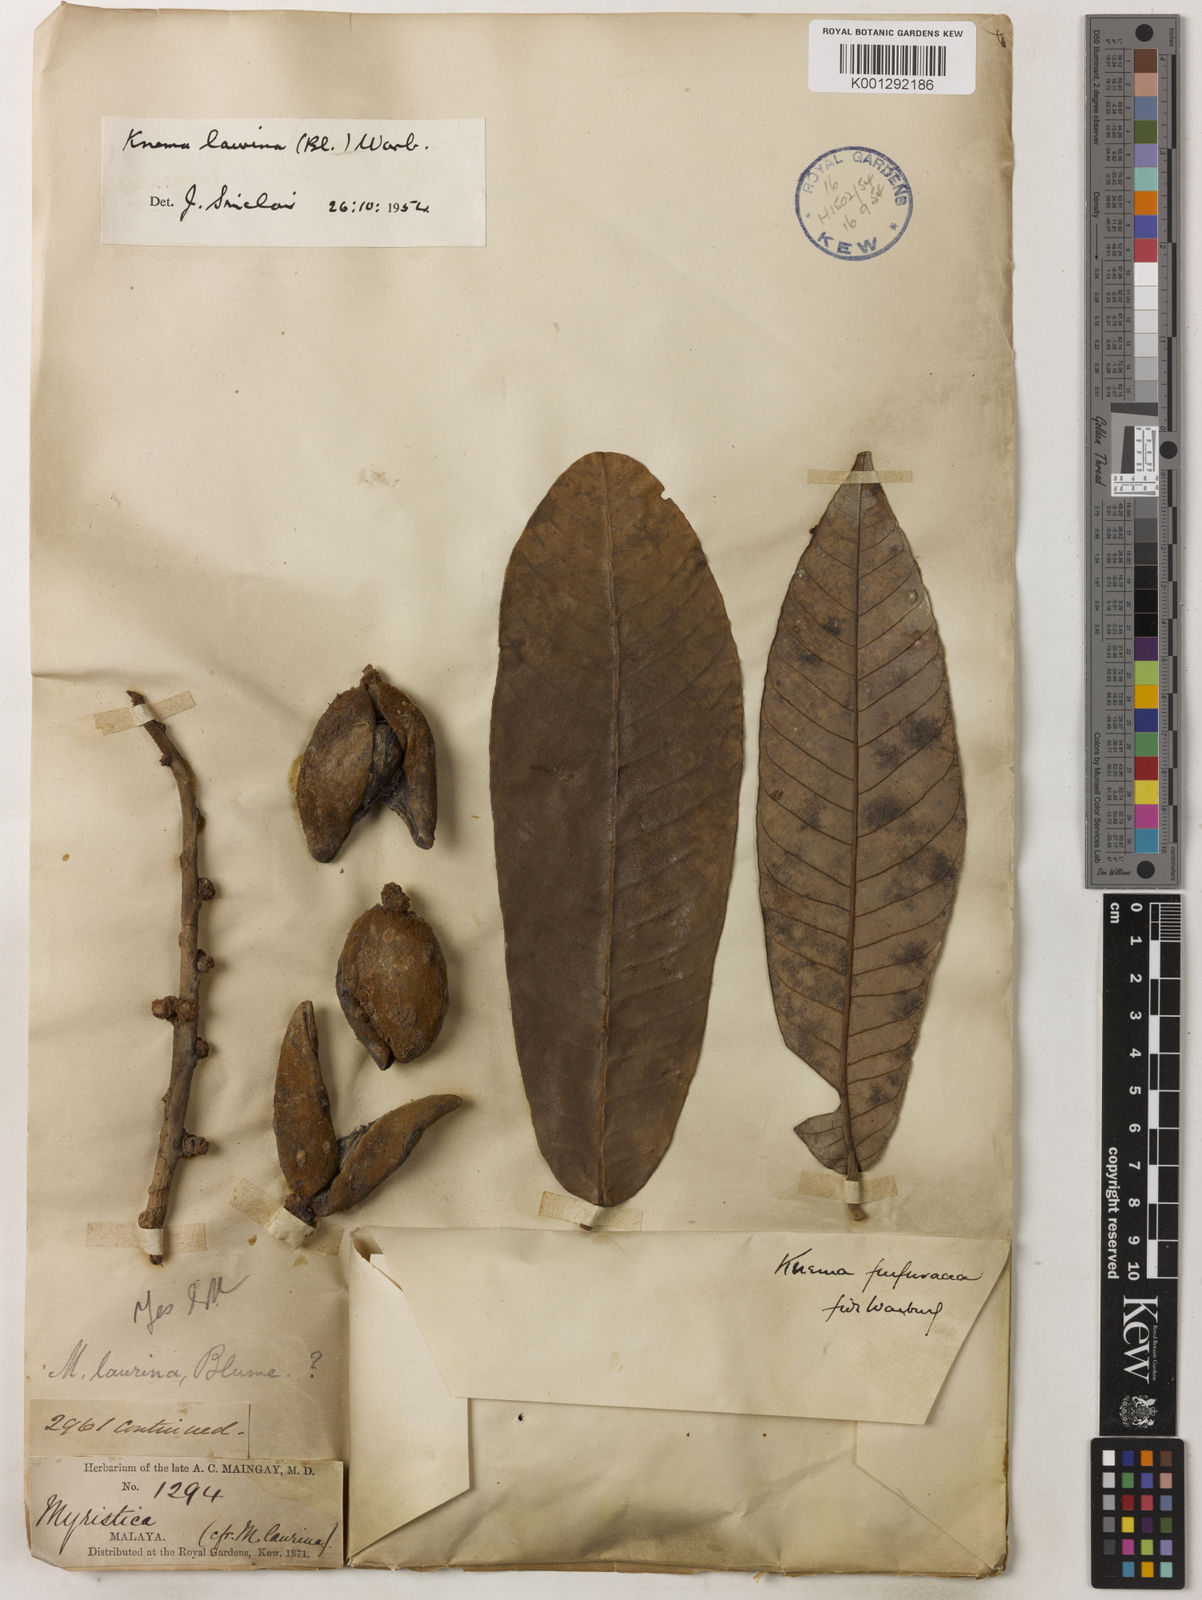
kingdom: Plantae
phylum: Tracheophyta
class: Magnoliopsida
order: Magnoliales
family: Myristicaceae
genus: Knema
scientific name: Knema laurina
